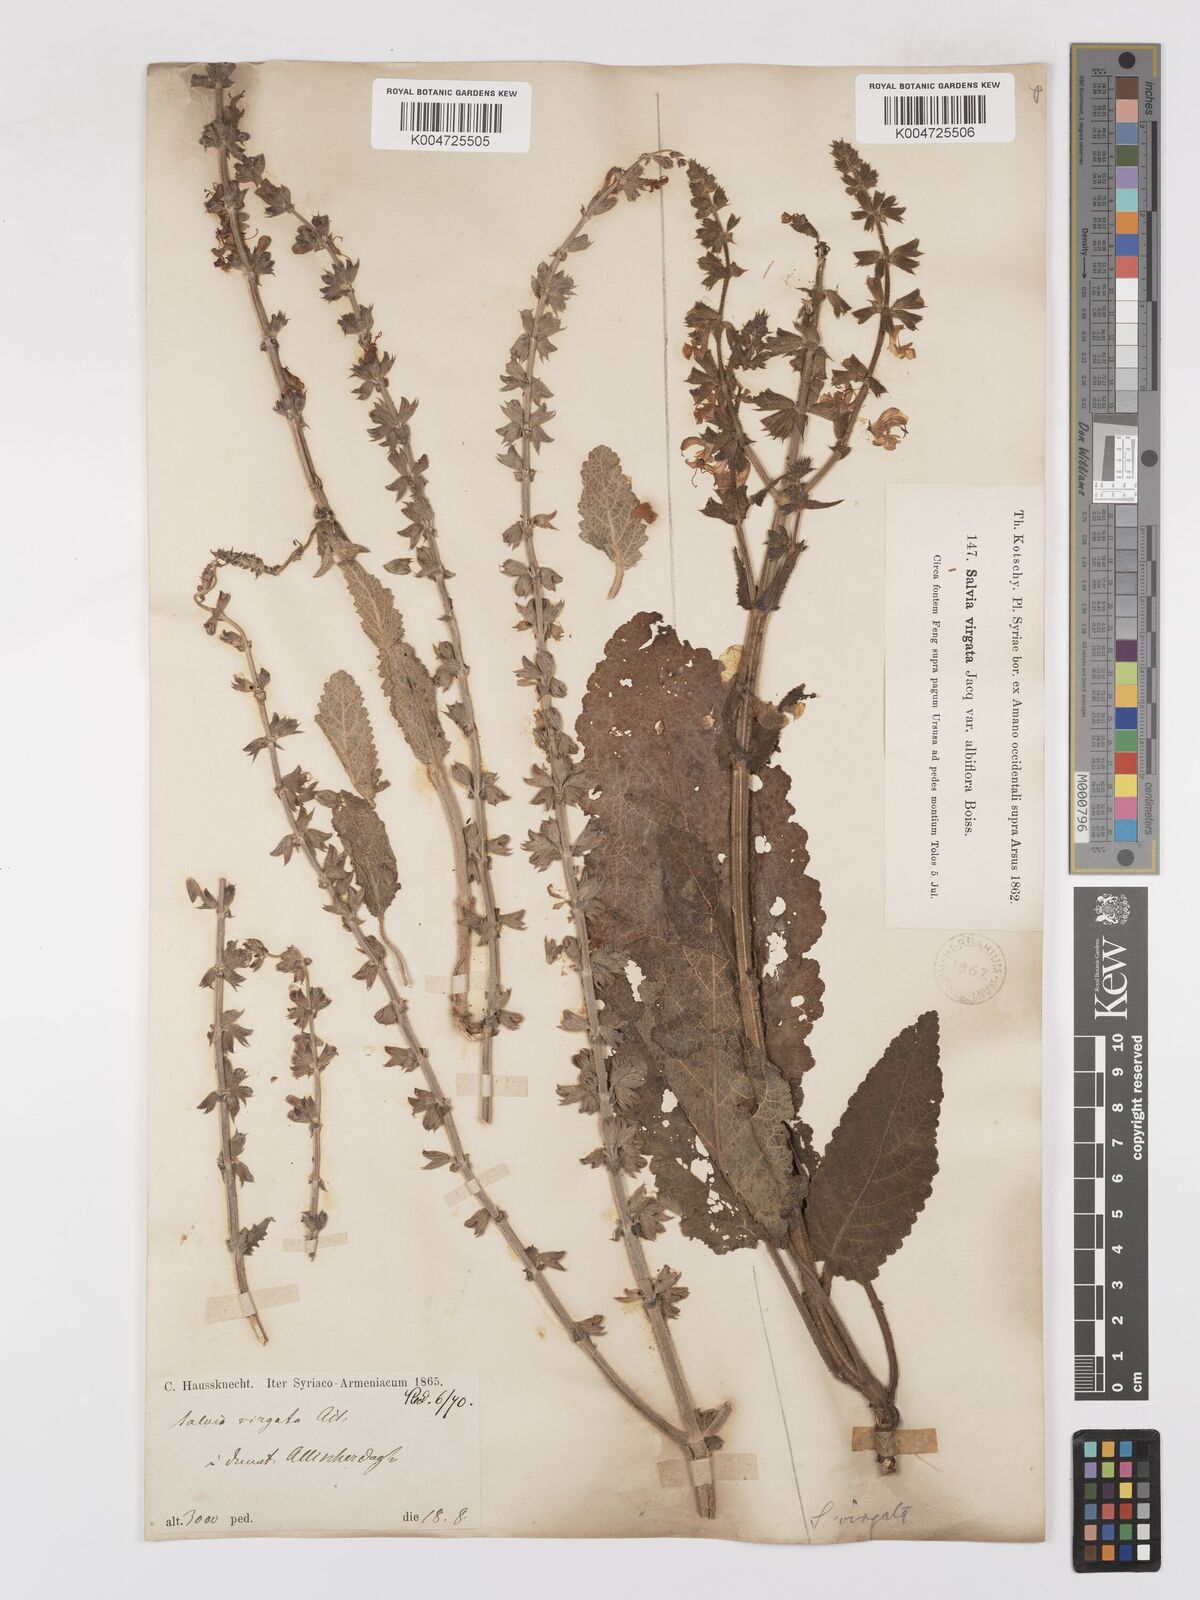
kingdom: Plantae
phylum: Tracheophyta
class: Magnoliopsida
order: Lamiales
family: Lamiaceae
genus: Salvia
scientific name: Salvia
